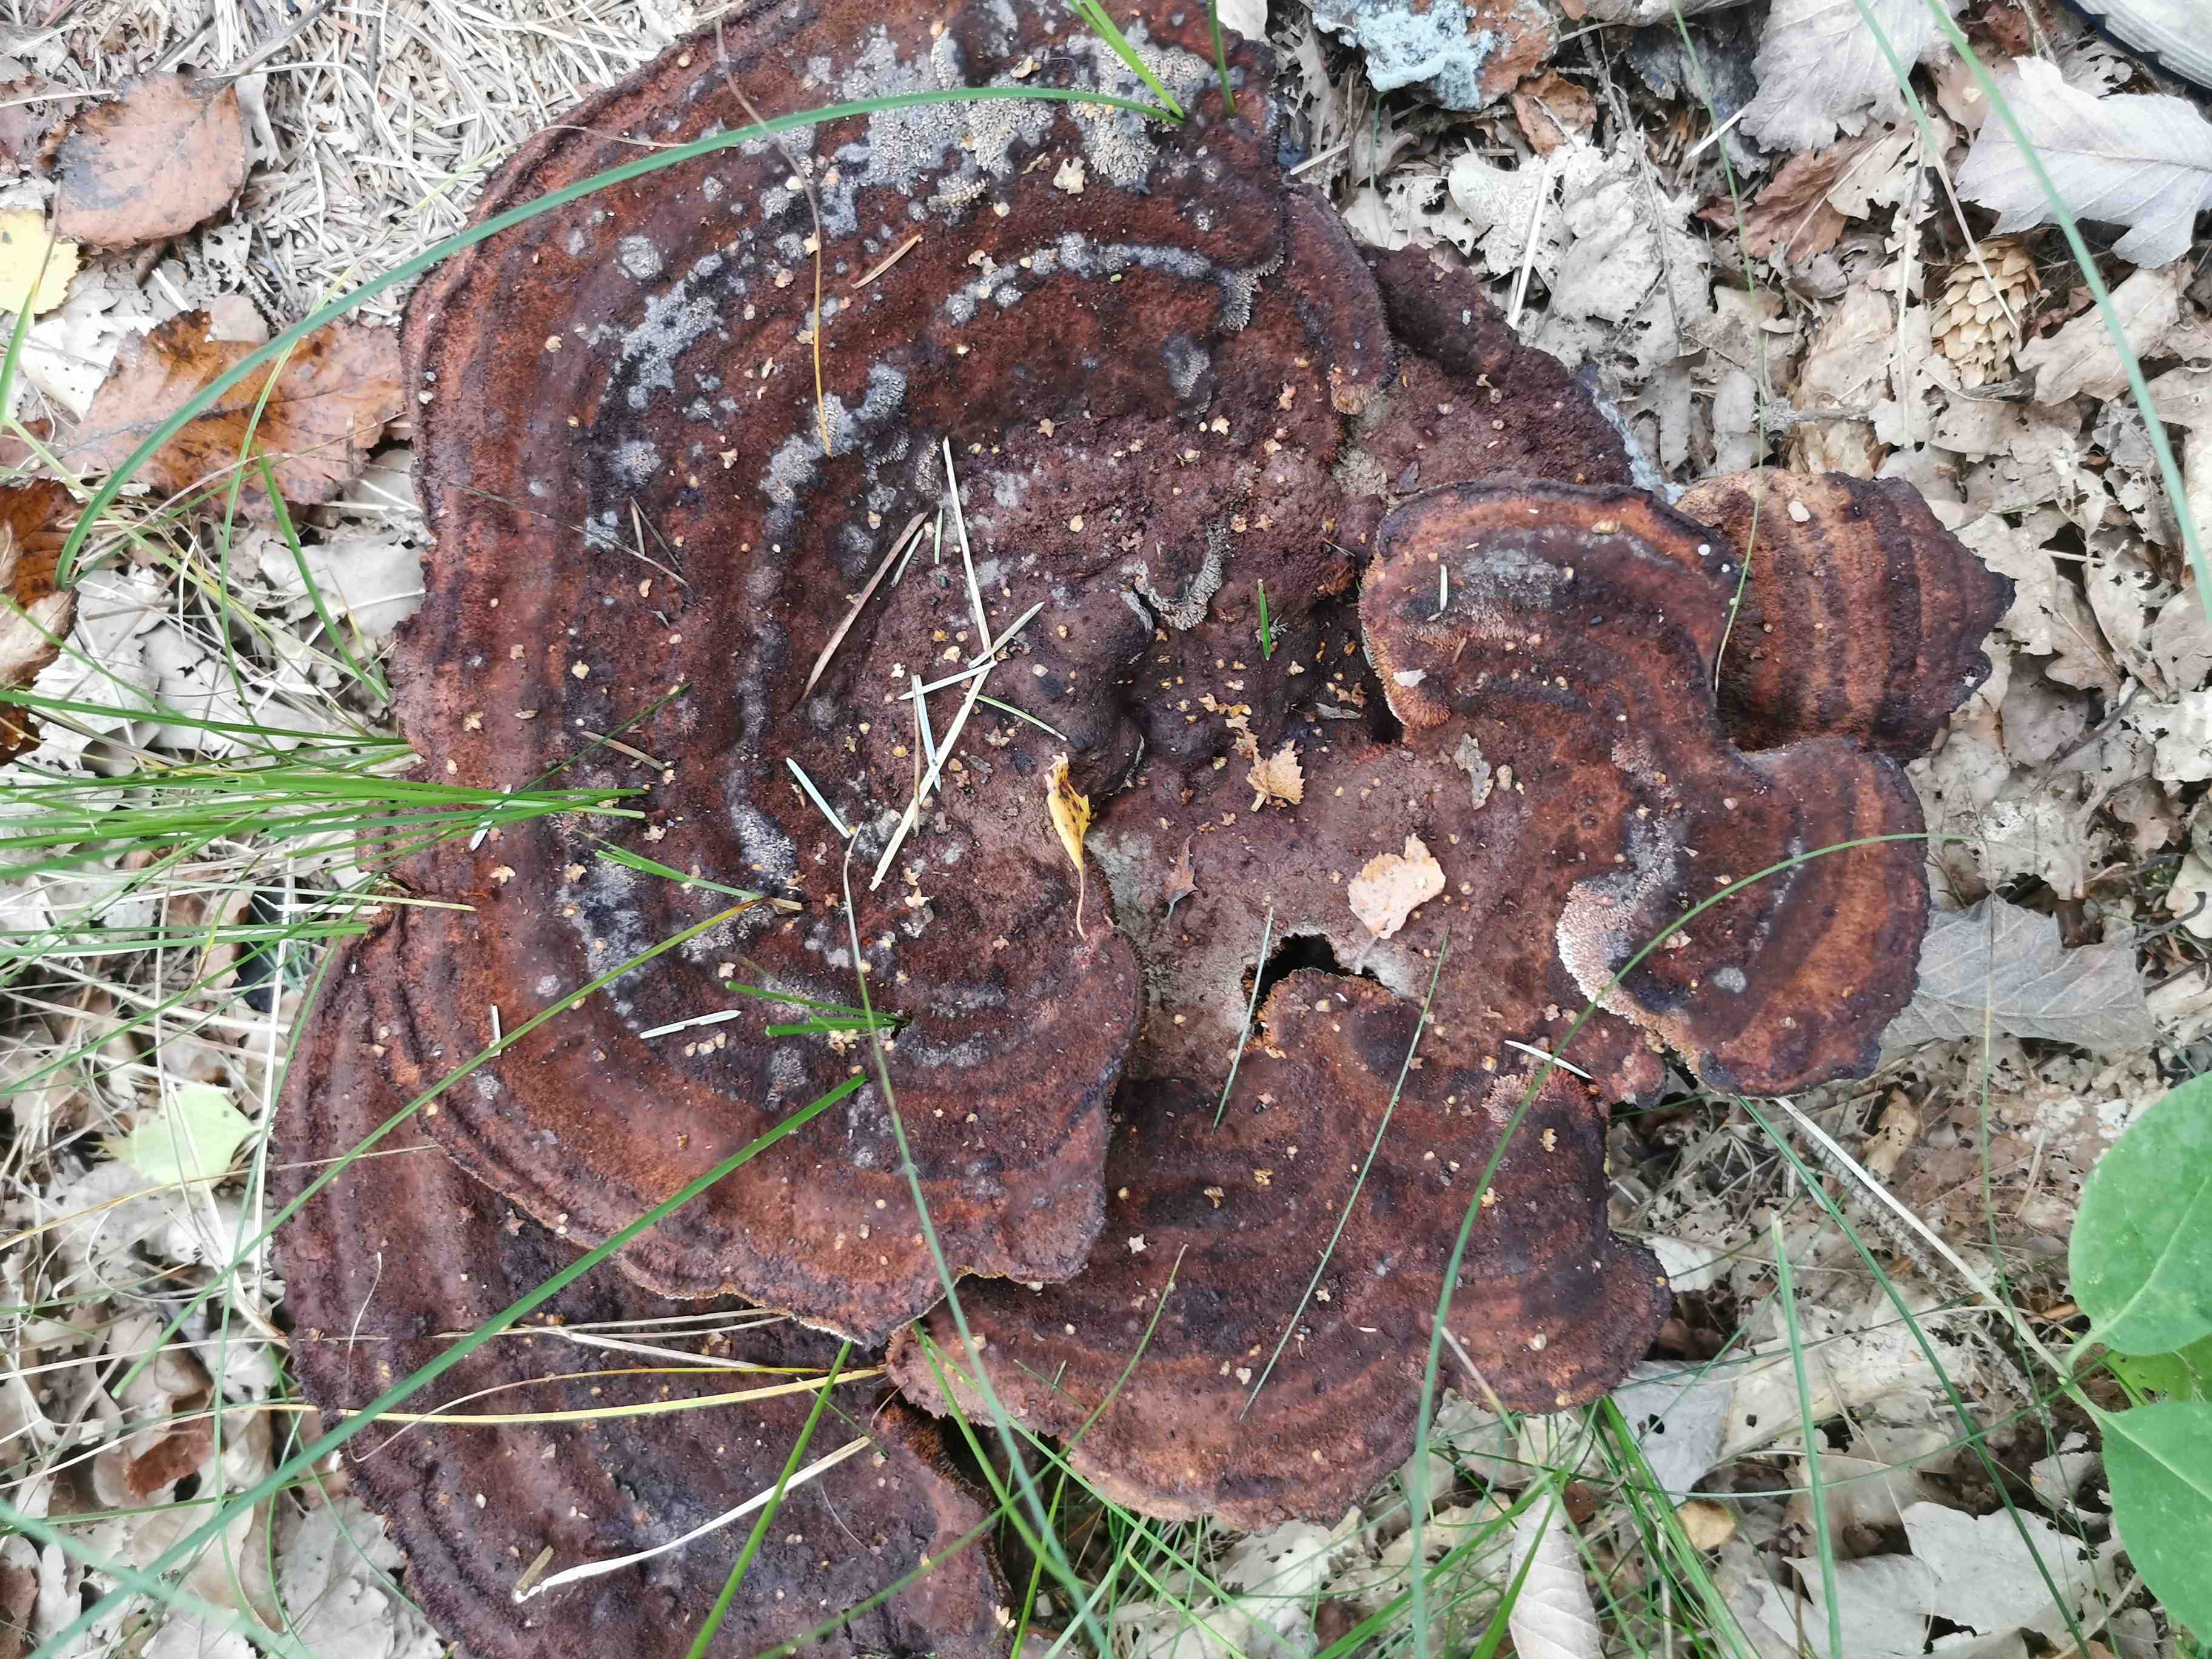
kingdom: Fungi
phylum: Basidiomycota
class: Agaricomycetes
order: Polyporales
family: Laetiporaceae
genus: Phaeolus
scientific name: Phaeolus schweinitzii
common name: brunporesvamp
